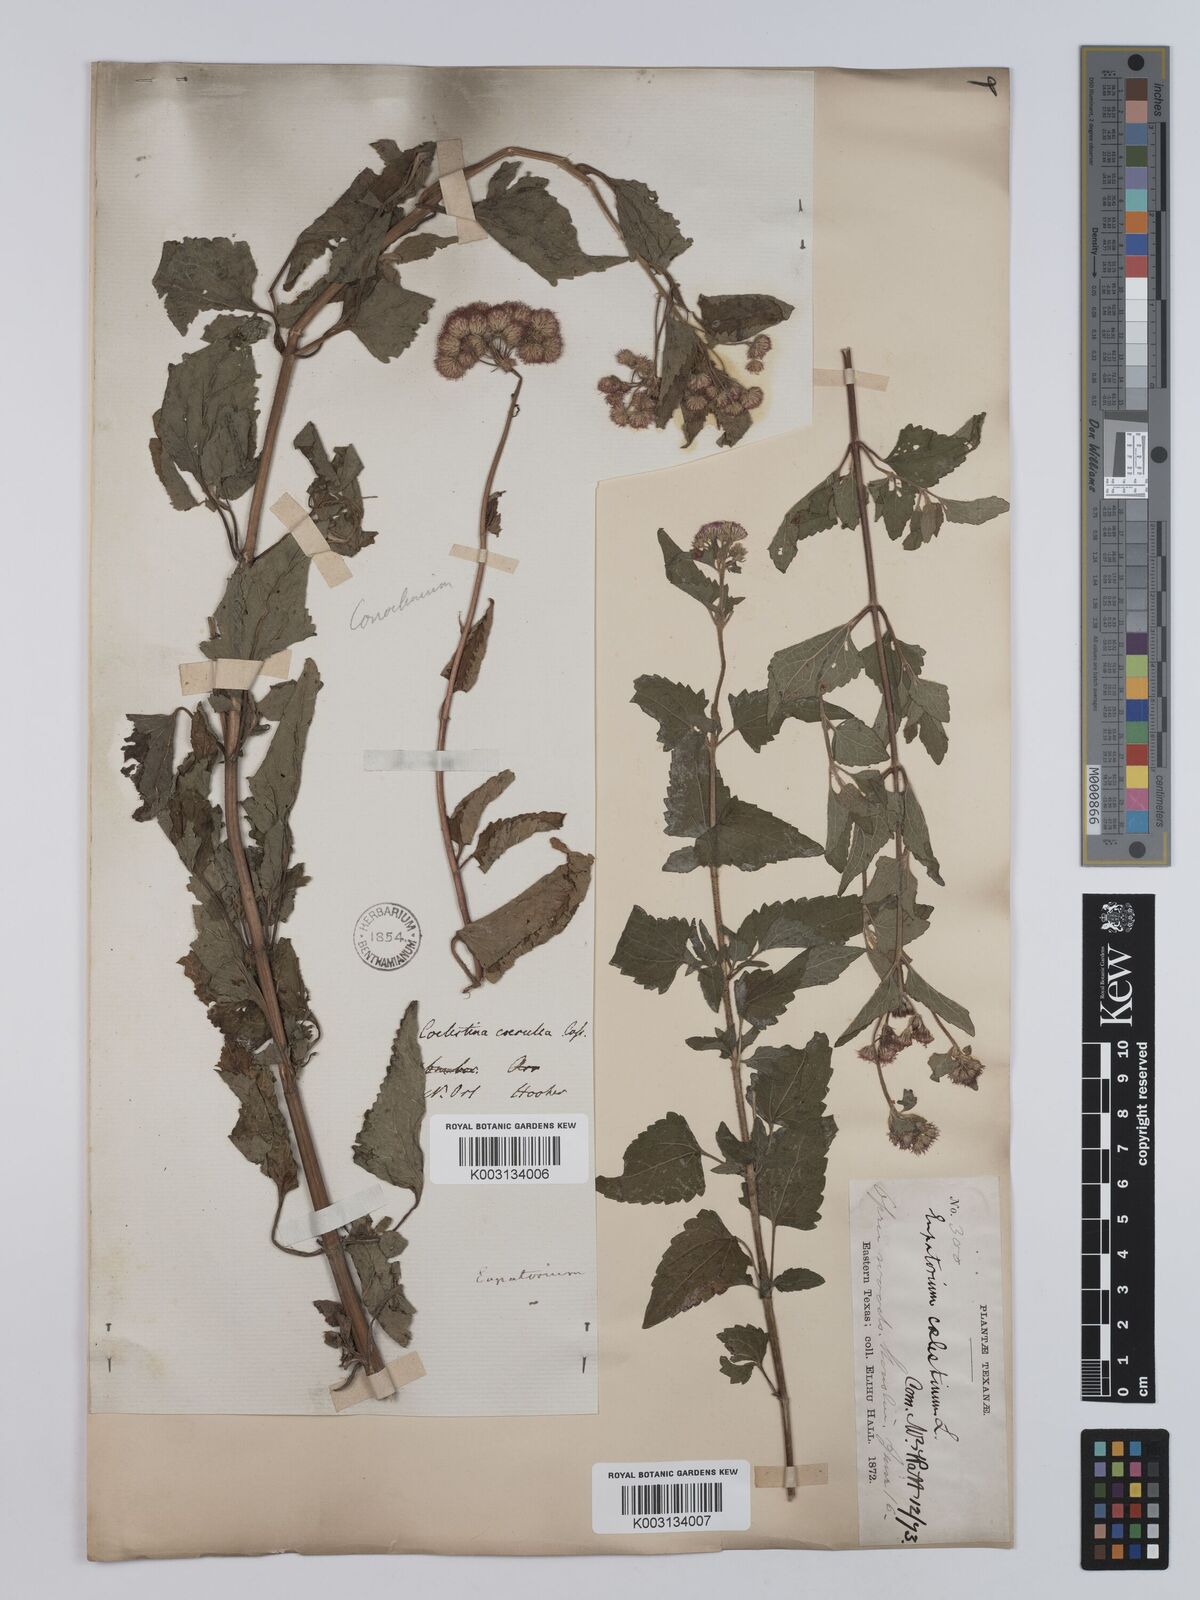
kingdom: Plantae
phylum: Tracheophyta
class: Magnoliopsida
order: Asterales
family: Asteraceae
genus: Conoclinium
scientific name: Conoclinium coelestinum
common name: Blue mistflower
